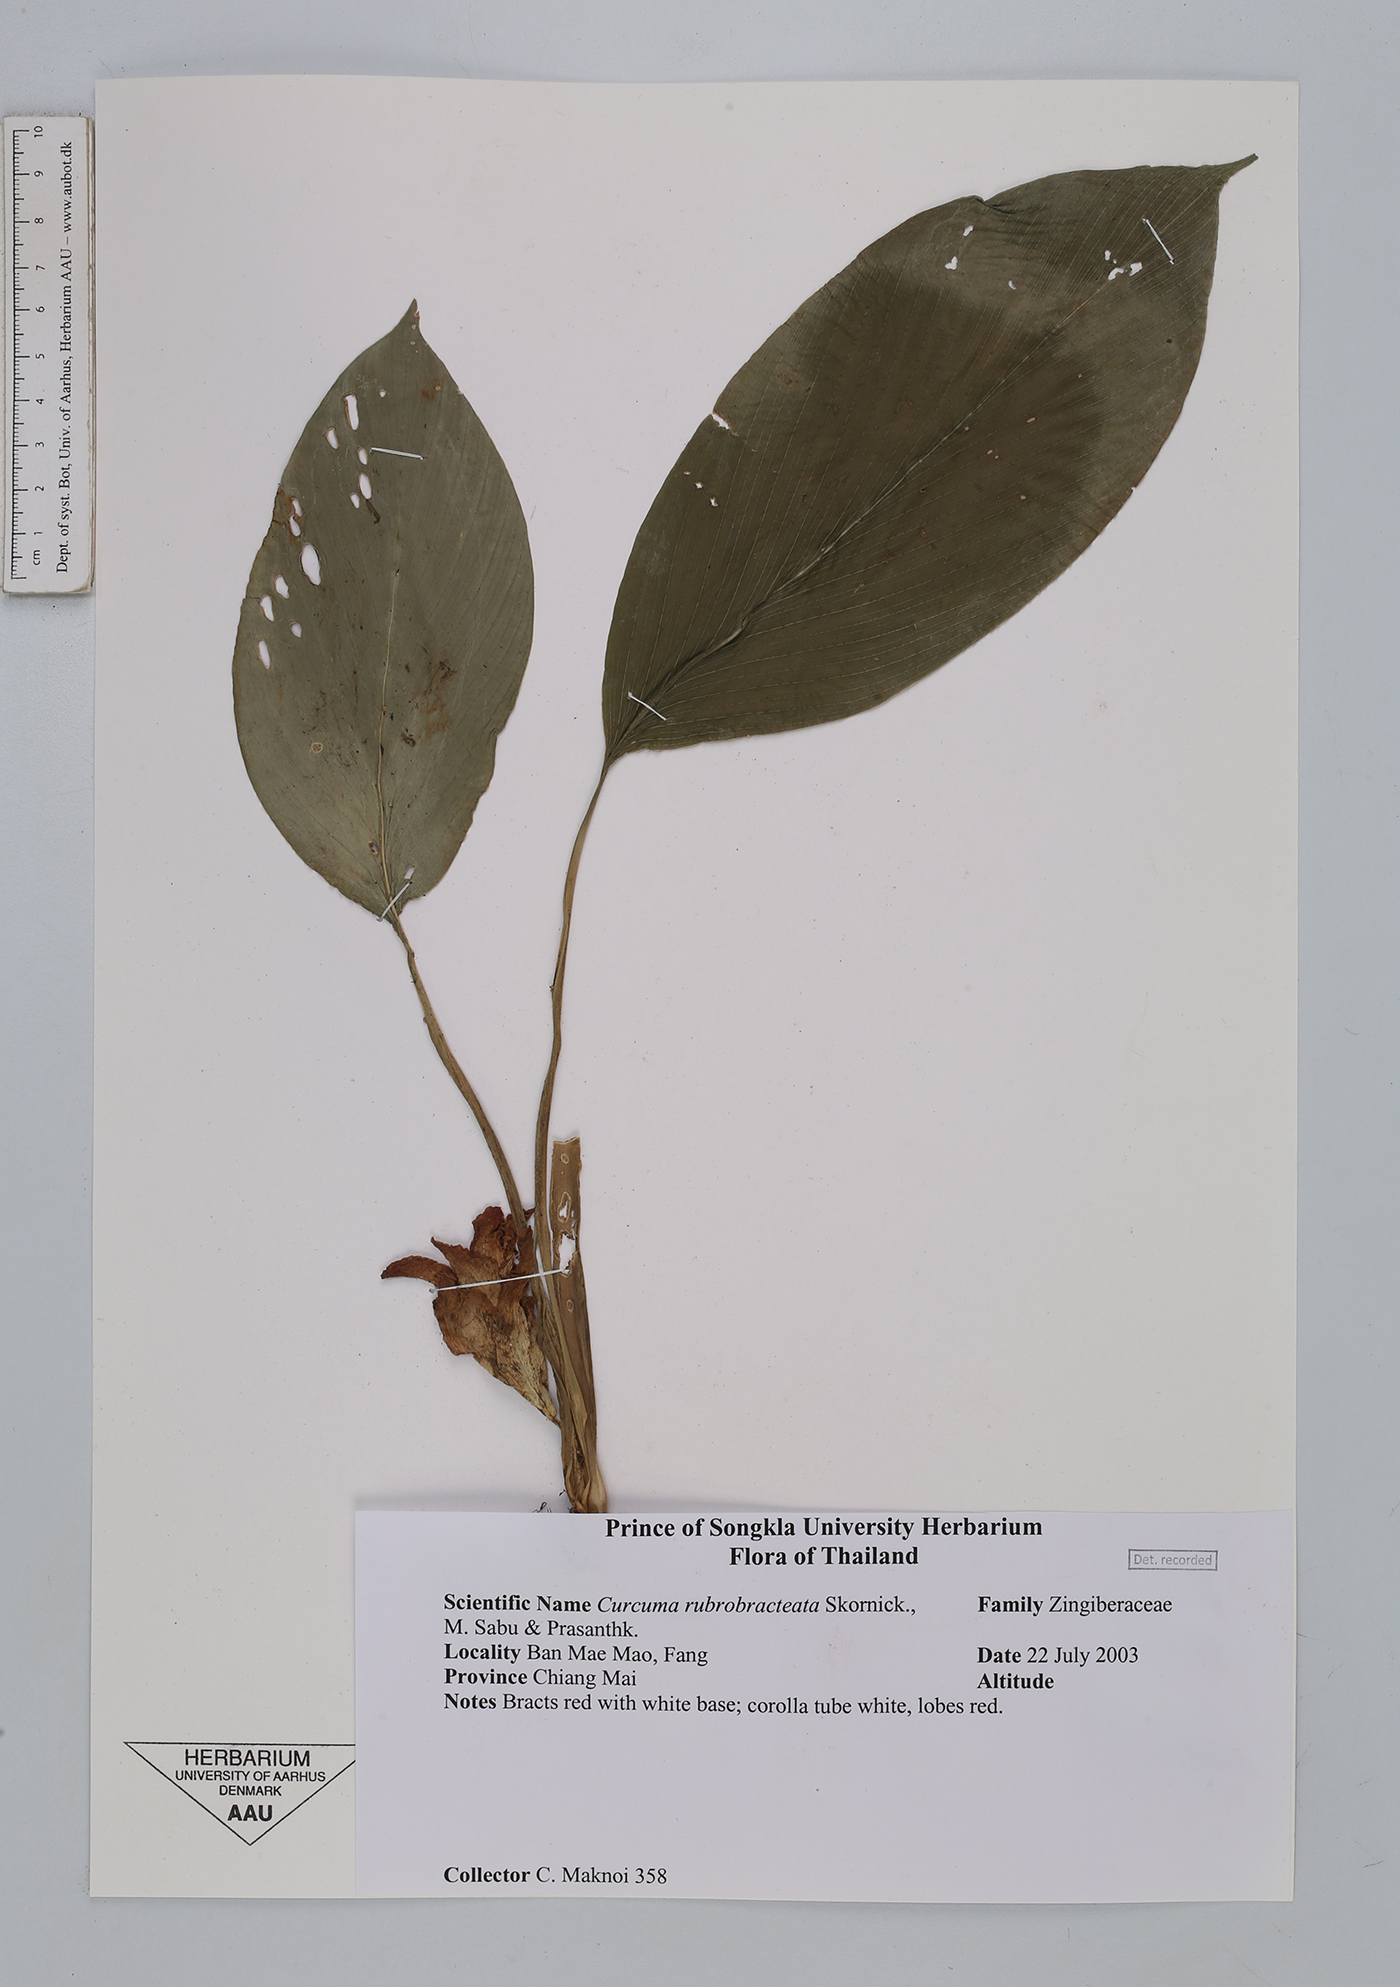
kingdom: Plantae
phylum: Tracheophyta
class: Liliopsida
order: Zingiberales
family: Zingiberaceae
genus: Curcuma
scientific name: Curcuma rubrobracteata
